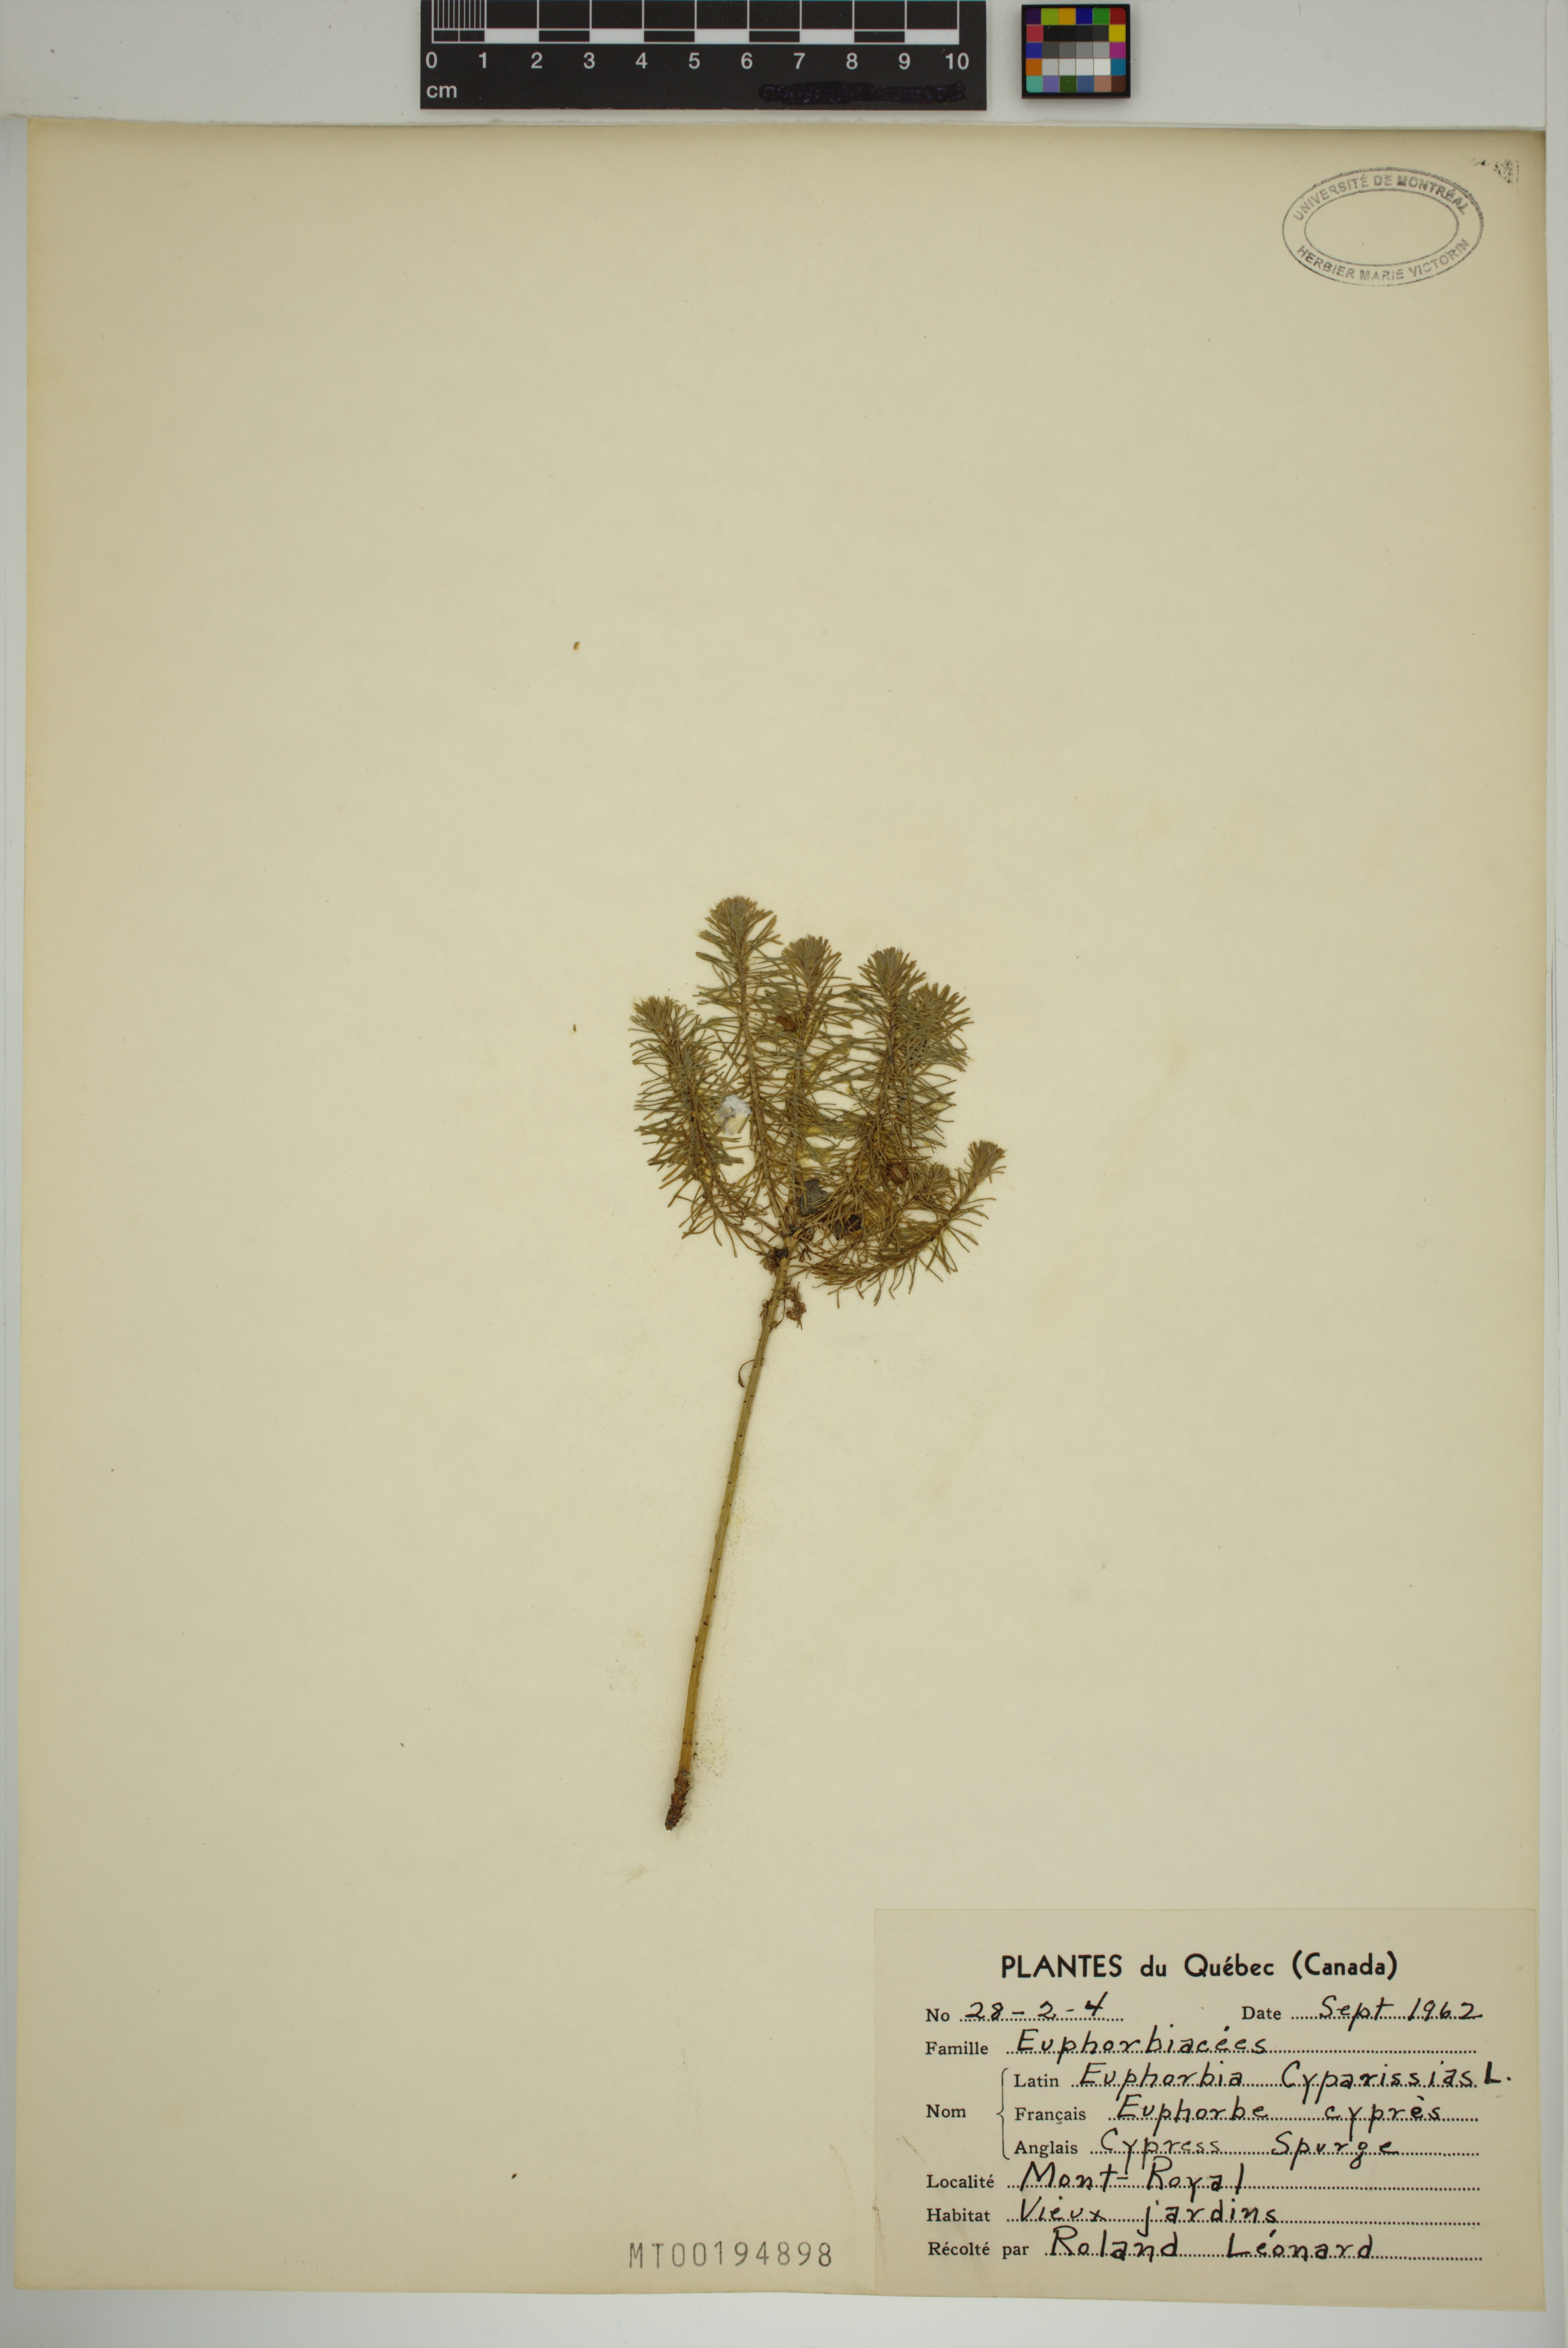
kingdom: Plantae
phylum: Tracheophyta
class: Magnoliopsida
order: Malpighiales
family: Euphorbiaceae
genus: Euphorbia
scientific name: Euphorbia cyparissias
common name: Cypress spurge
